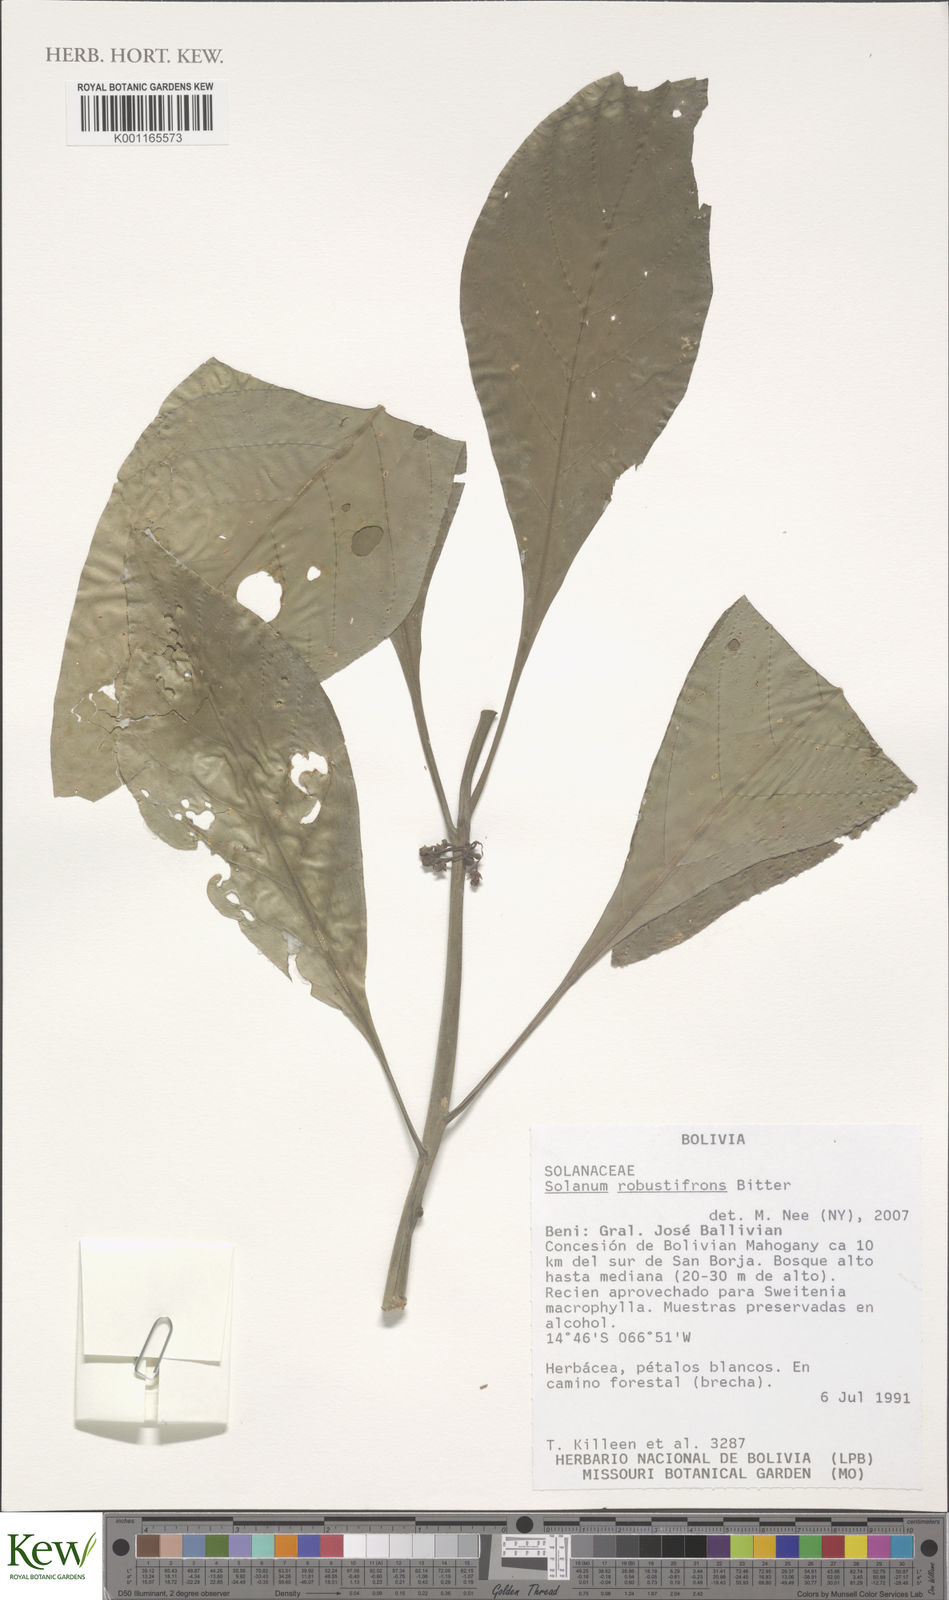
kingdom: Plantae
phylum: Tracheophyta
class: Magnoliopsida
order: Solanales
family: Solanaceae
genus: Solanum
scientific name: Solanum robustifrons
